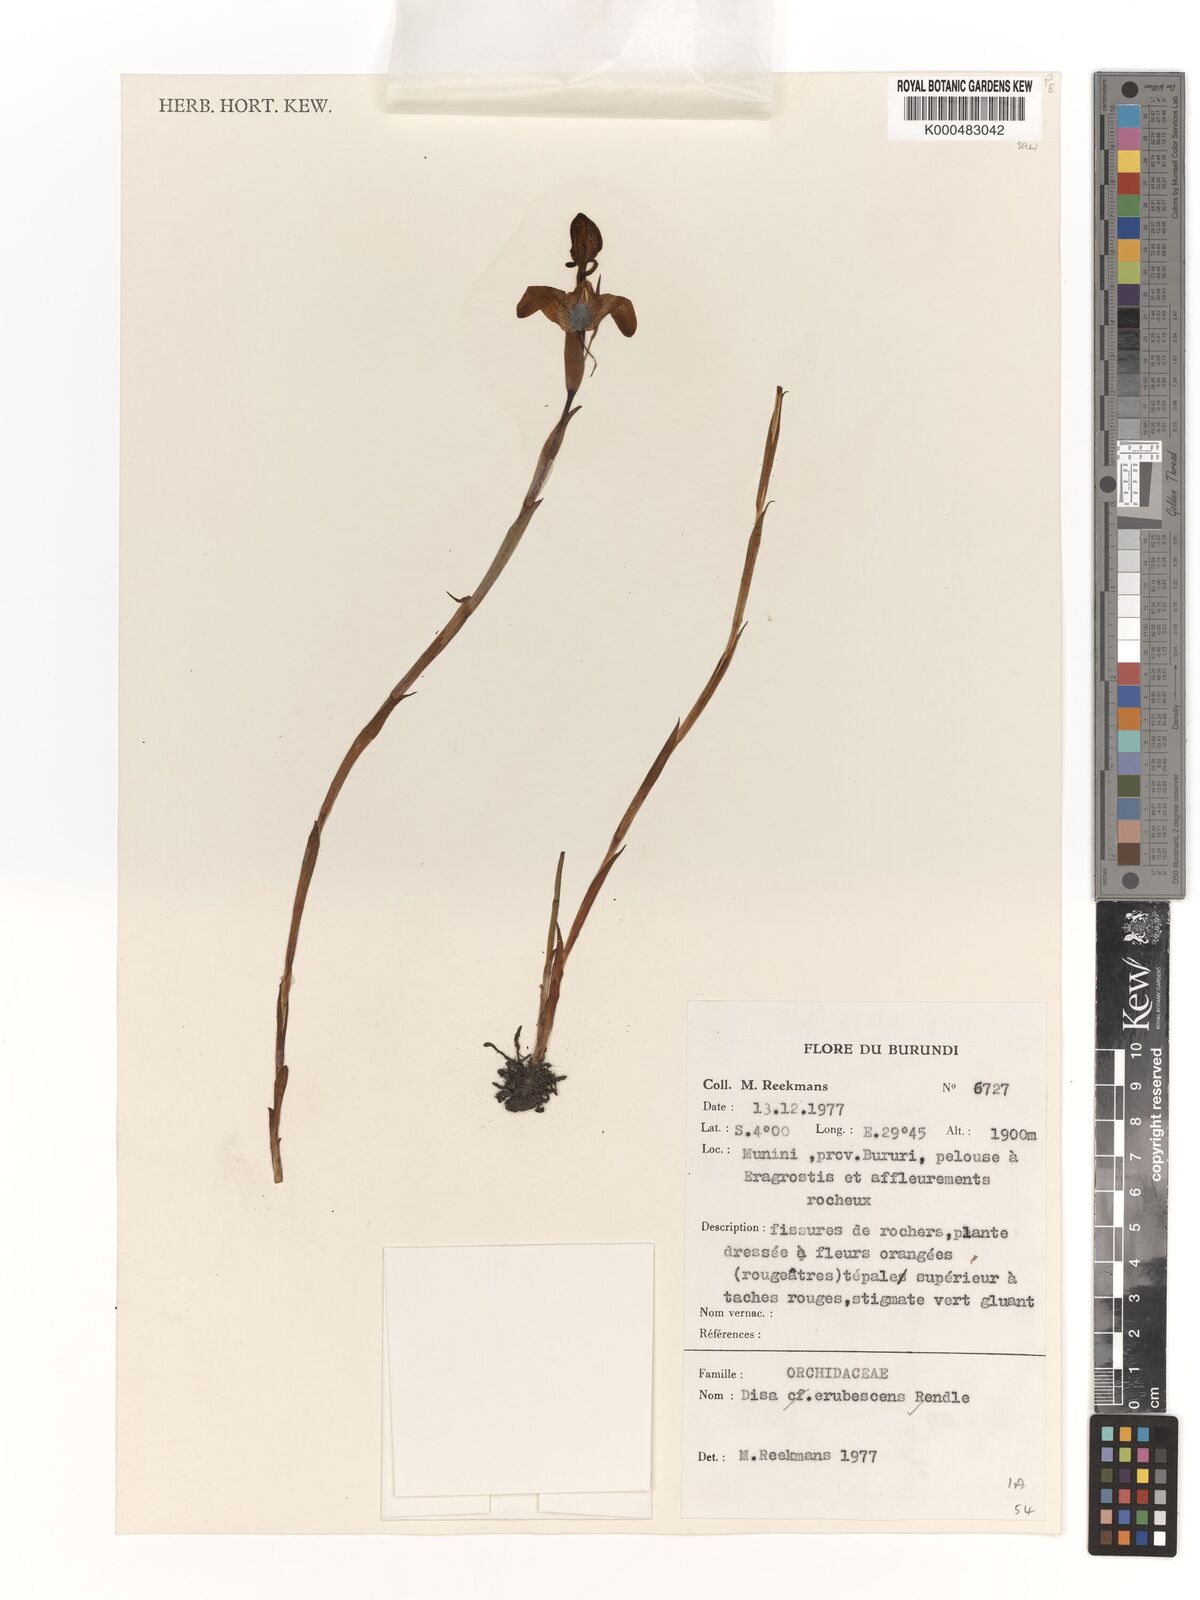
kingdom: Plantae
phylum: Tracheophyta
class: Liliopsida
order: Asparagales
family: Orchidaceae
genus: Disa
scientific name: Disa erubescens
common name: The rose disa
